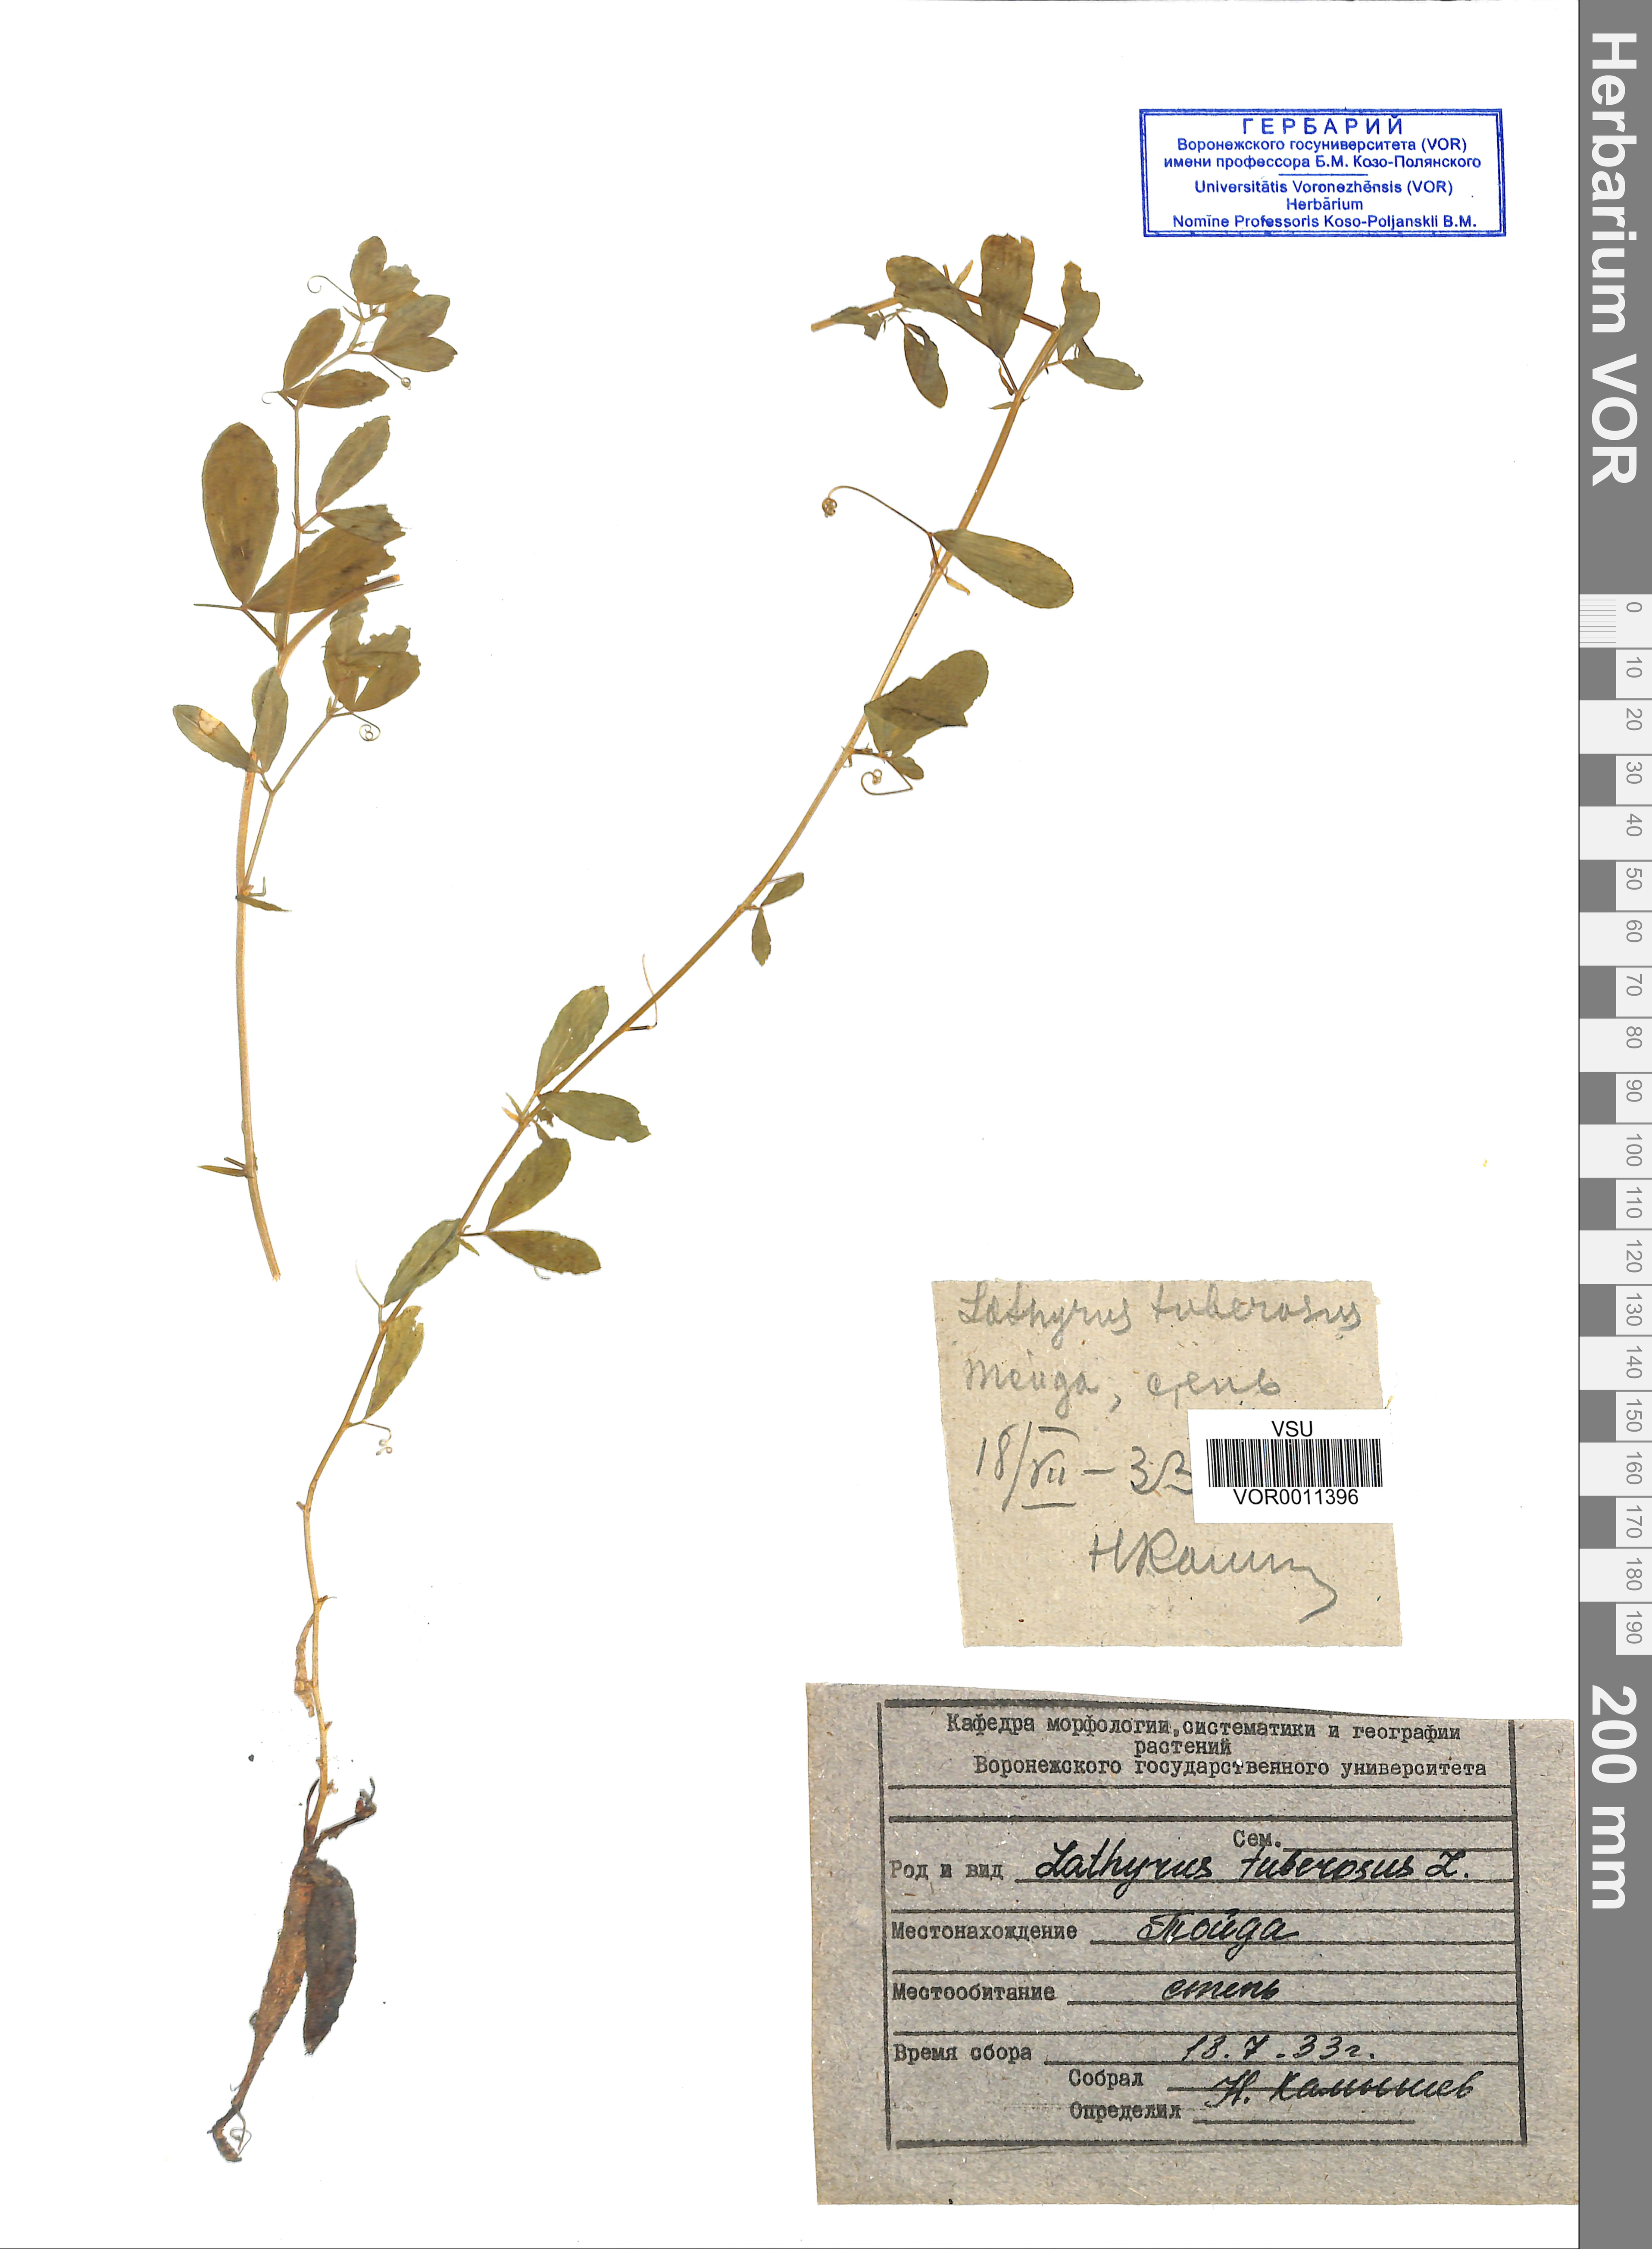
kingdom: Plantae
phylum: Tracheophyta
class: Magnoliopsida
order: Fabales
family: Fabaceae
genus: Lathyrus
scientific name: Lathyrus tuberosus
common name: Tuberous pea
